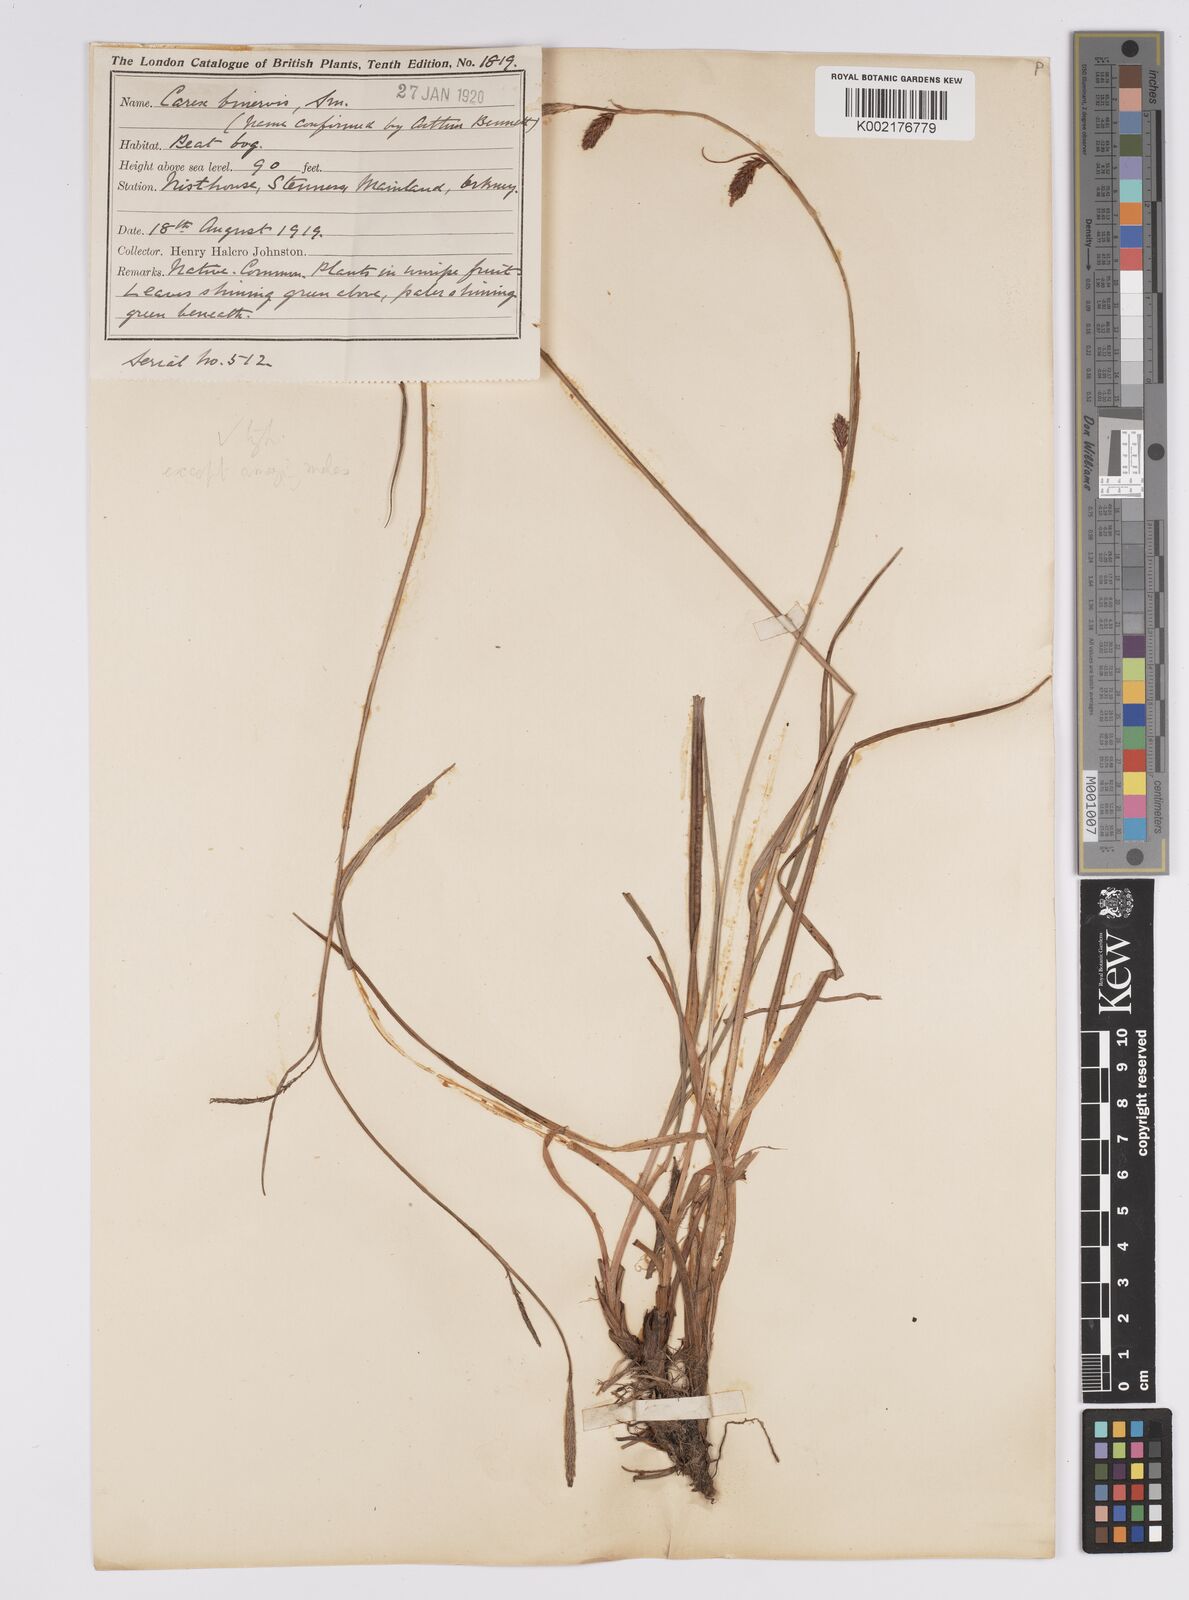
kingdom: Plantae
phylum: Tracheophyta
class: Liliopsida
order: Poales
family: Cyperaceae
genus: Carex
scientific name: Carex binervis
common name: Green-ribbed sedge
